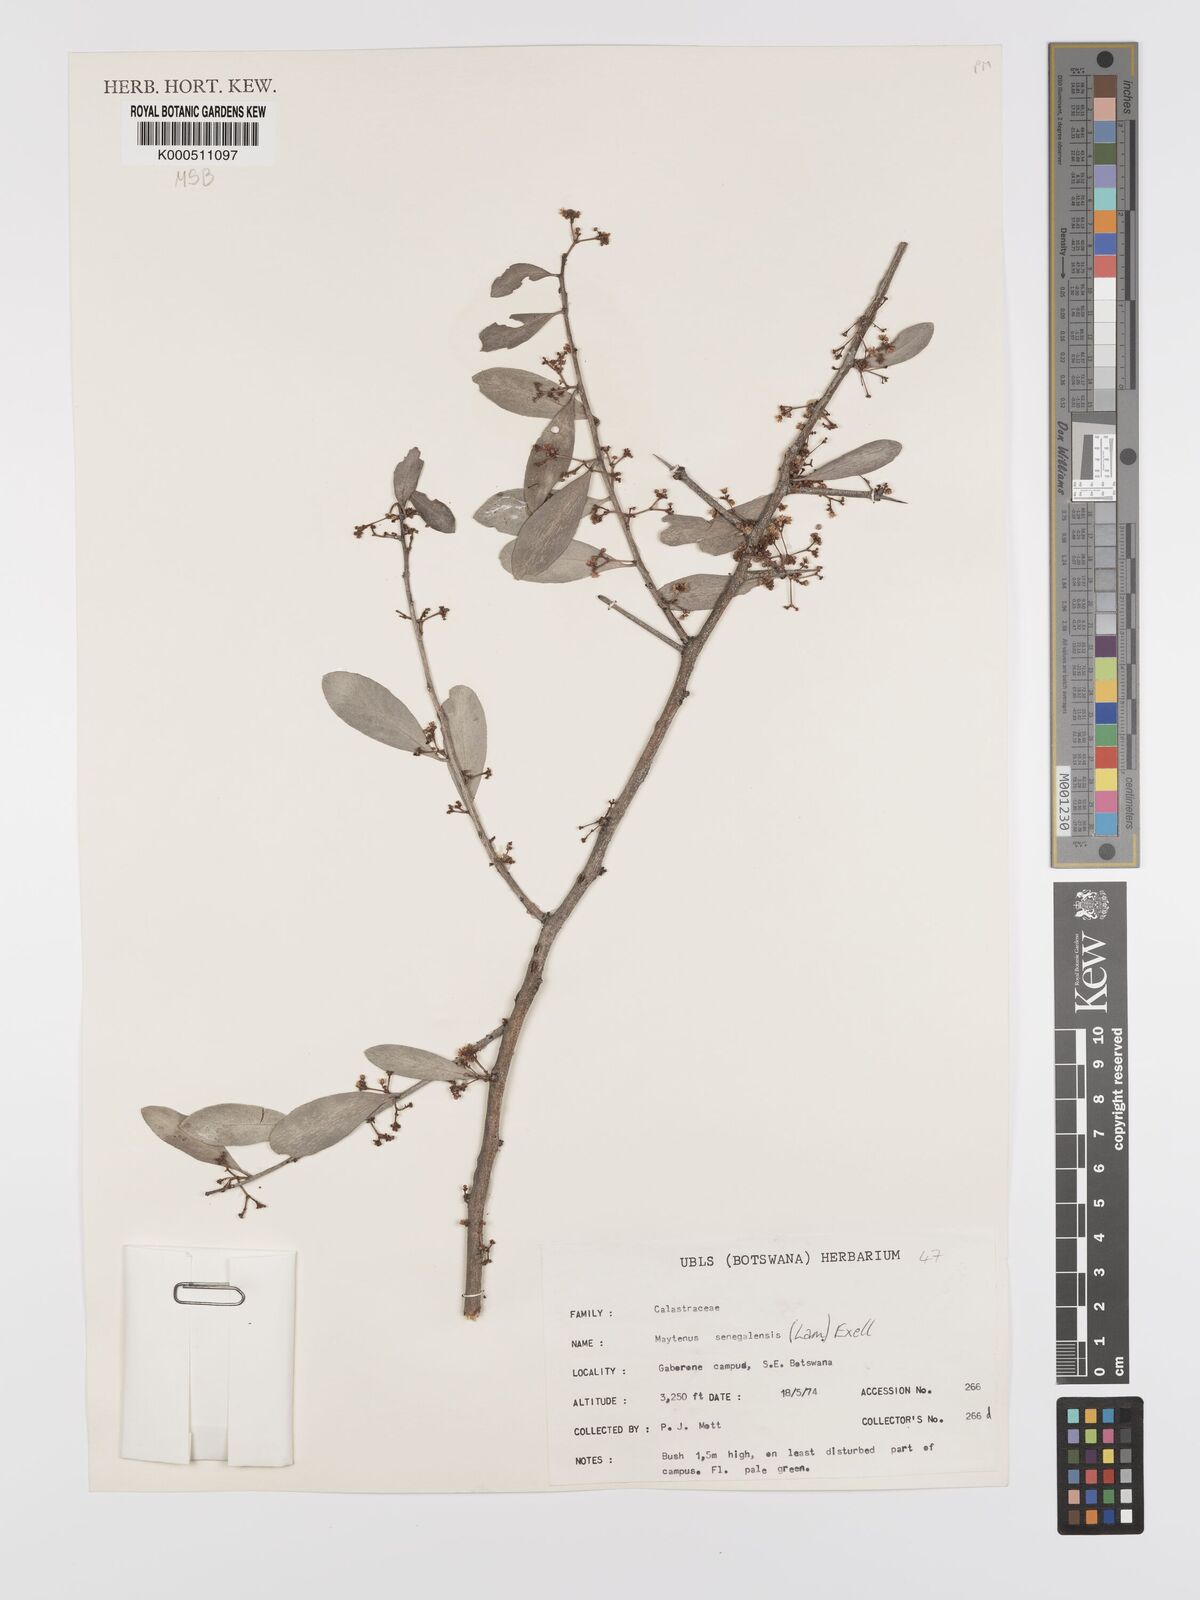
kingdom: Plantae
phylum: Tracheophyta
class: Magnoliopsida
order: Celastrales
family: Celastraceae
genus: Gymnosporia
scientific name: Gymnosporia senegalensis
